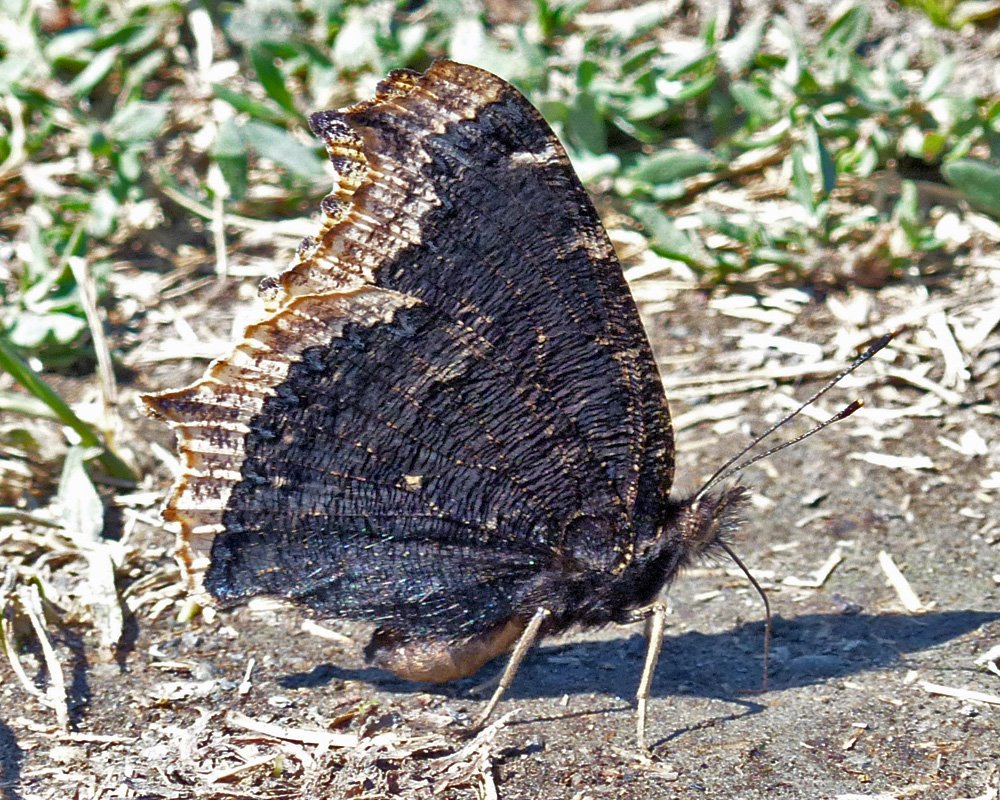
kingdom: Animalia
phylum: Arthropoda
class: Insecta
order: Lepidoptera
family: Nymphalidae
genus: Nymphalis
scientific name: Nymphalis antiopa
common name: Mourning Cloak
